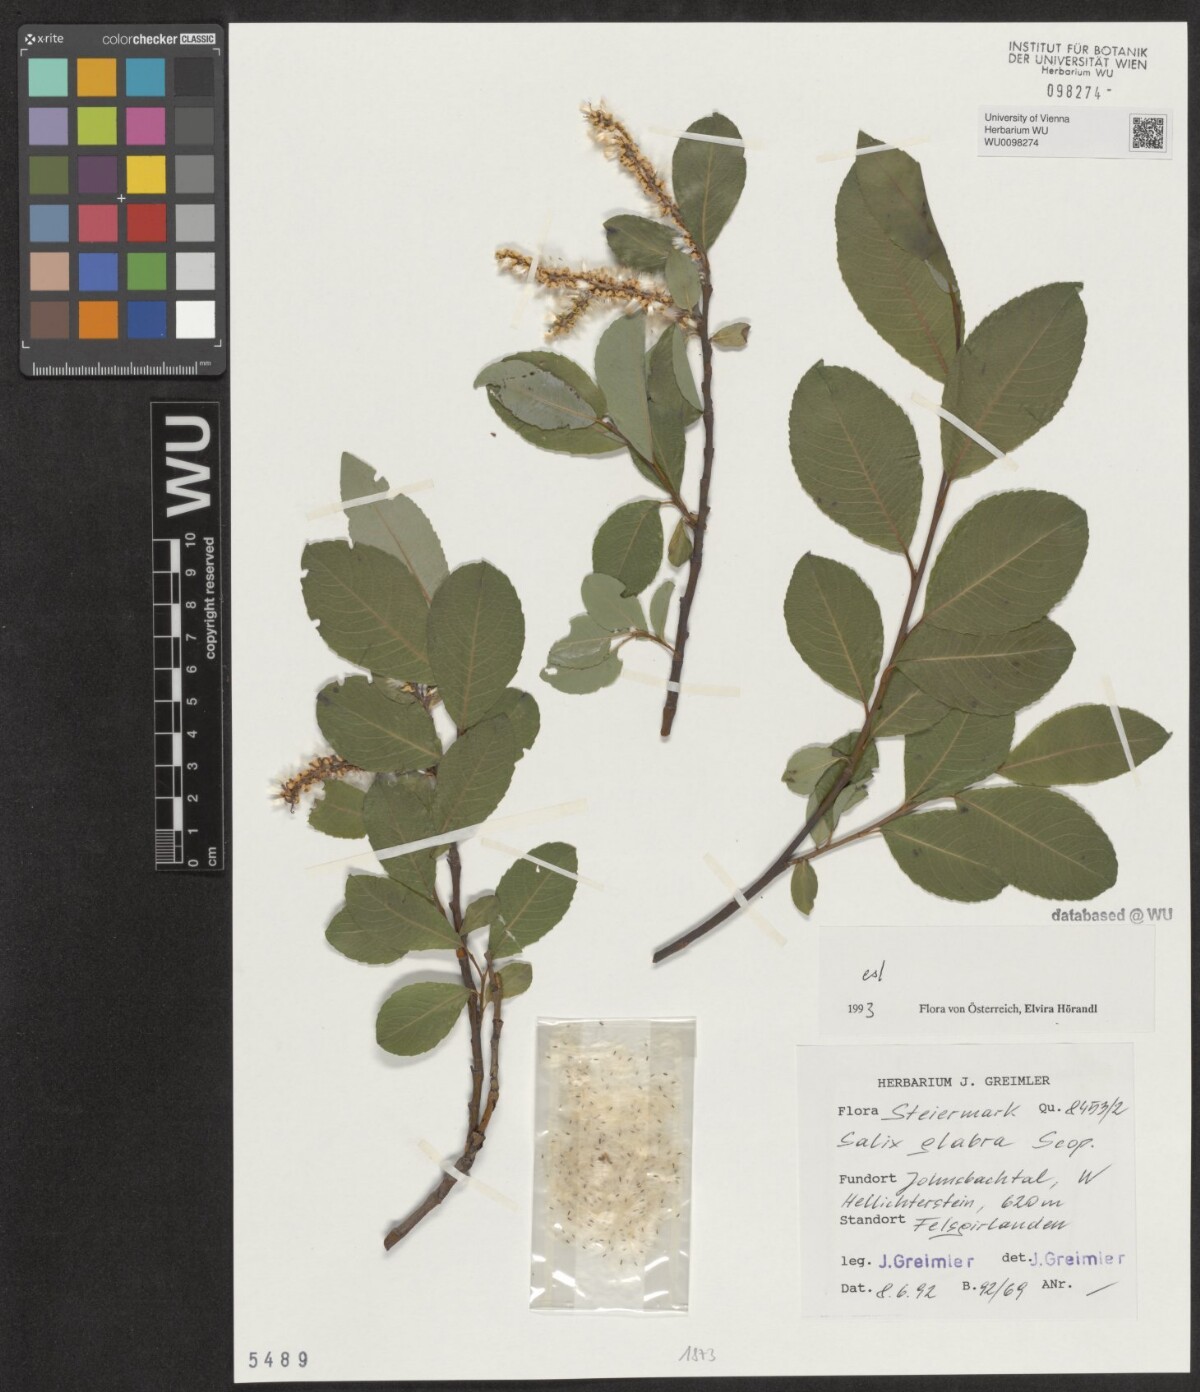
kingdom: Plantae
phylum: Tracheophyta
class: Magnoliopsida
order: Malpighiales
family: Salicaceae
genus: Salix
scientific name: Salix glabra
